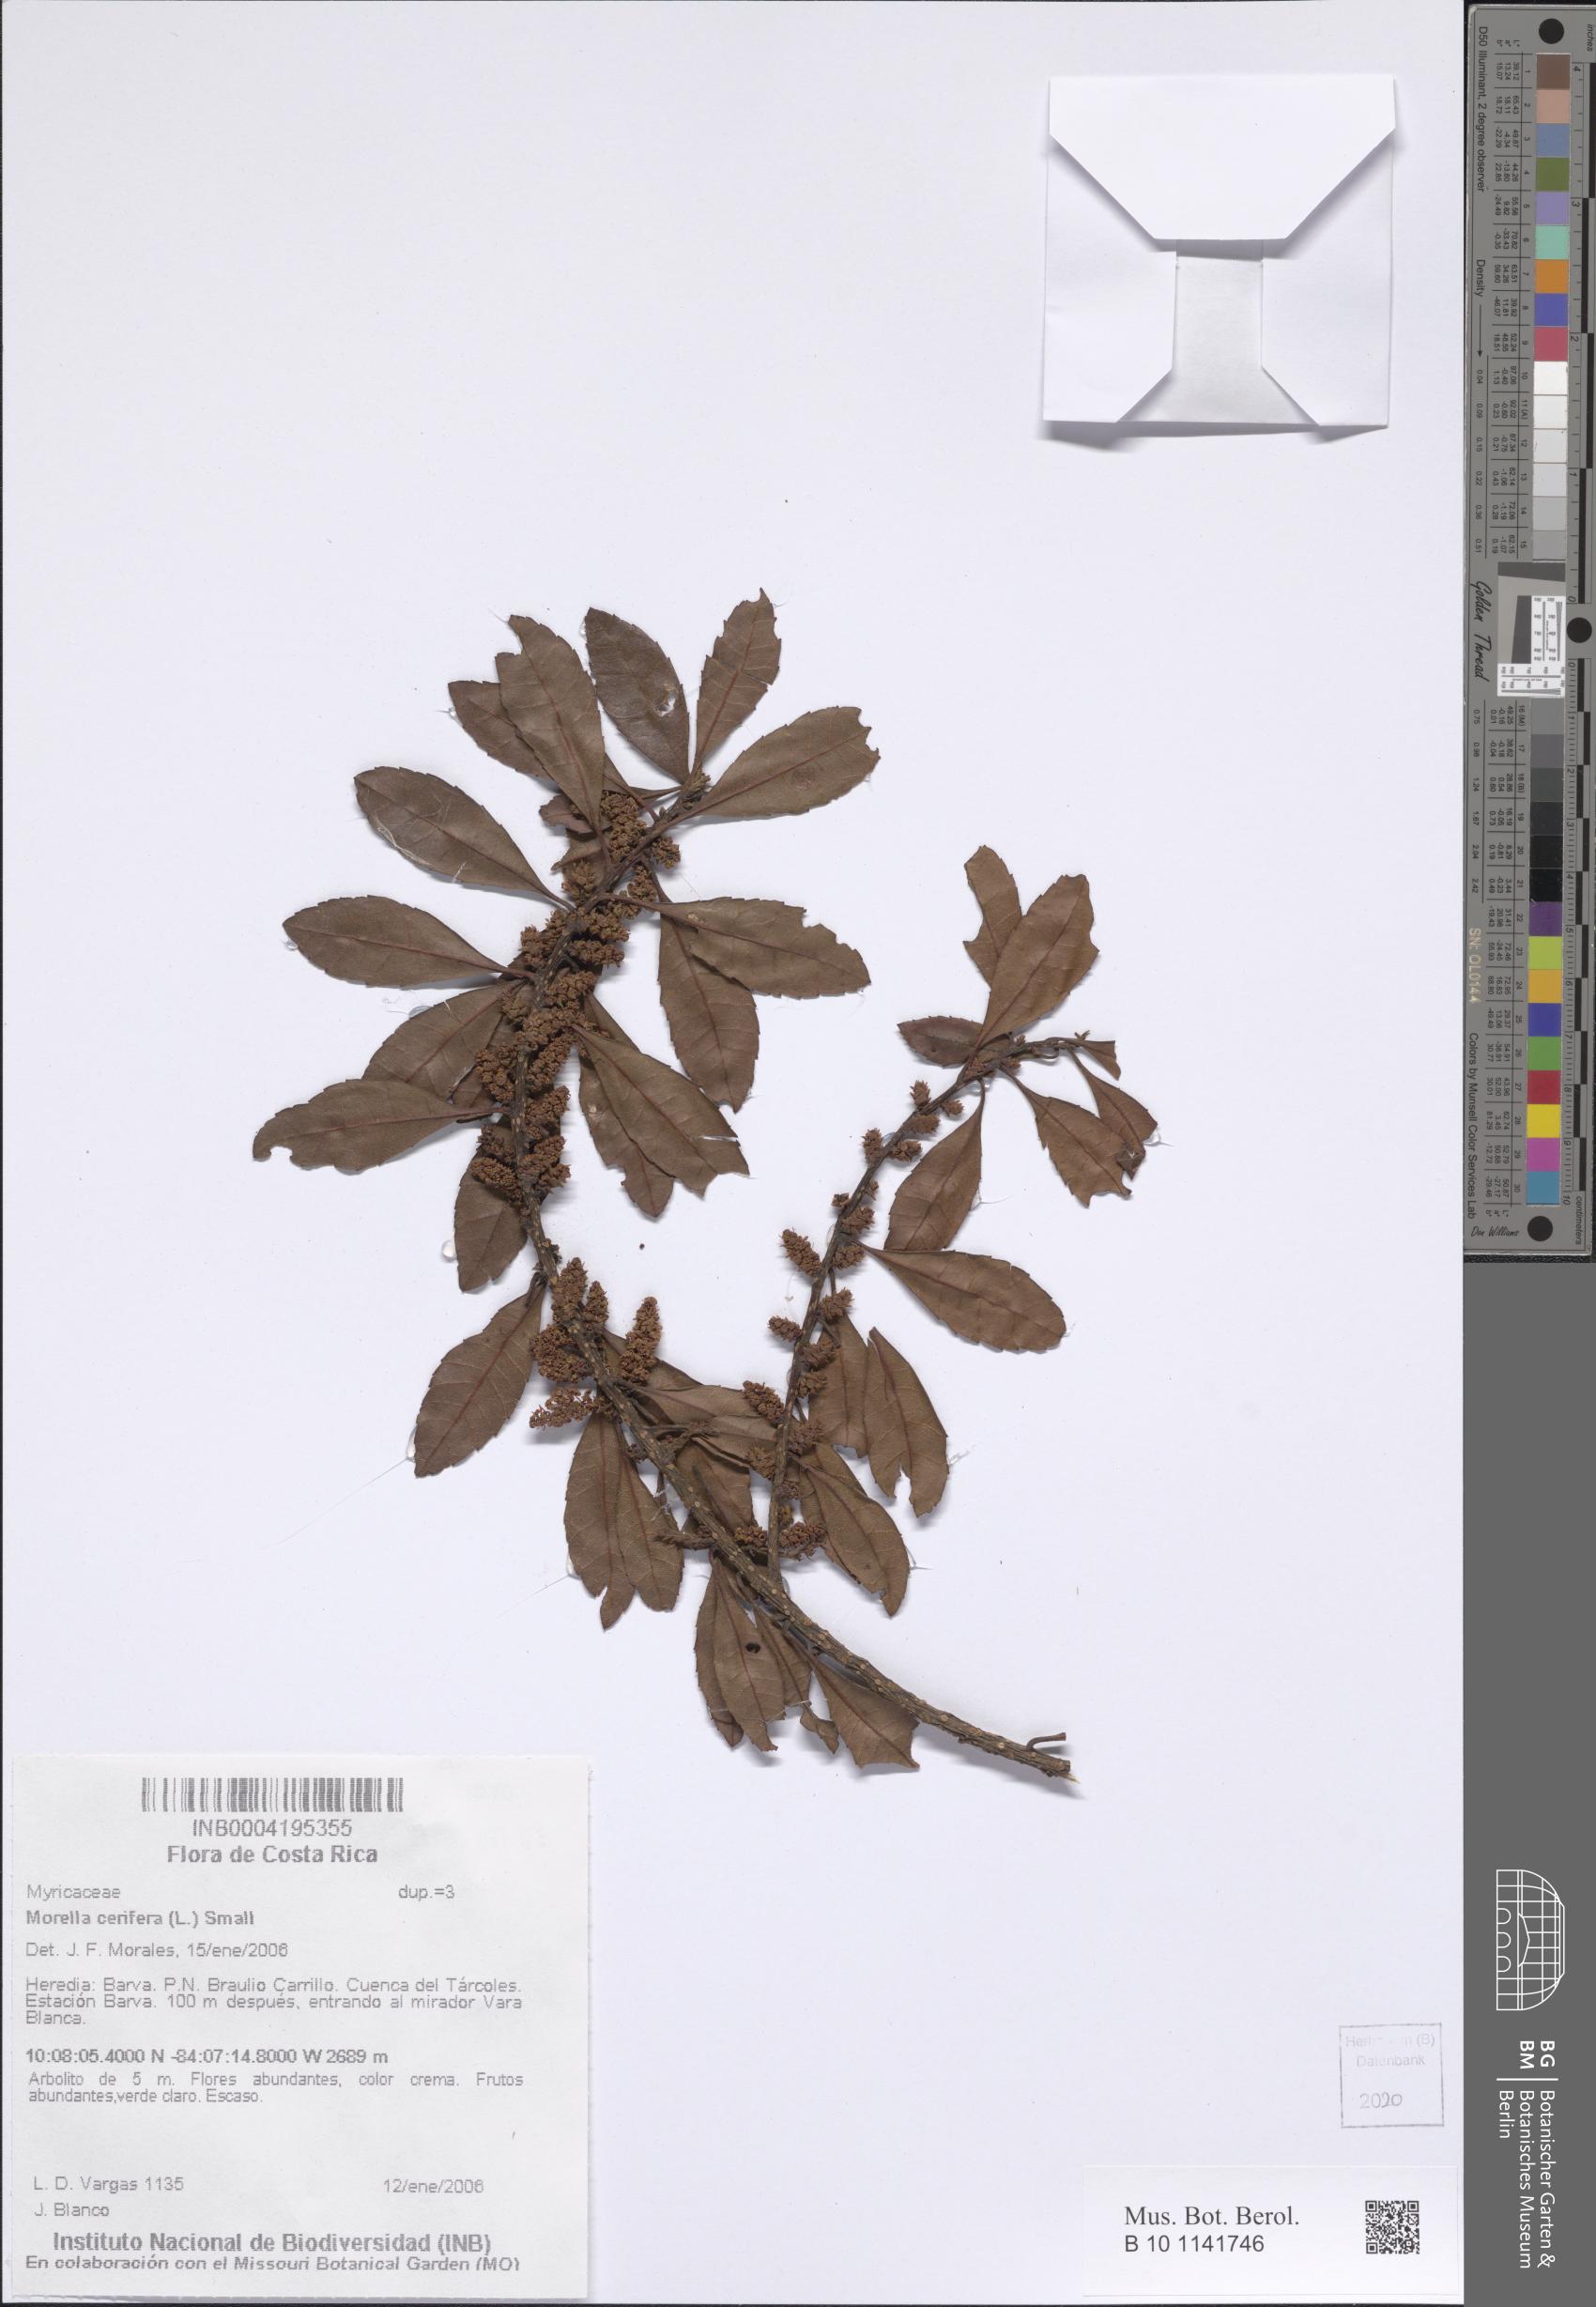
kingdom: Plantae
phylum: Tracheophyta
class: Magnoliopsida
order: Fagales
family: Myricaceae
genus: Morella
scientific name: Morella cerifera
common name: Wax myrtle
